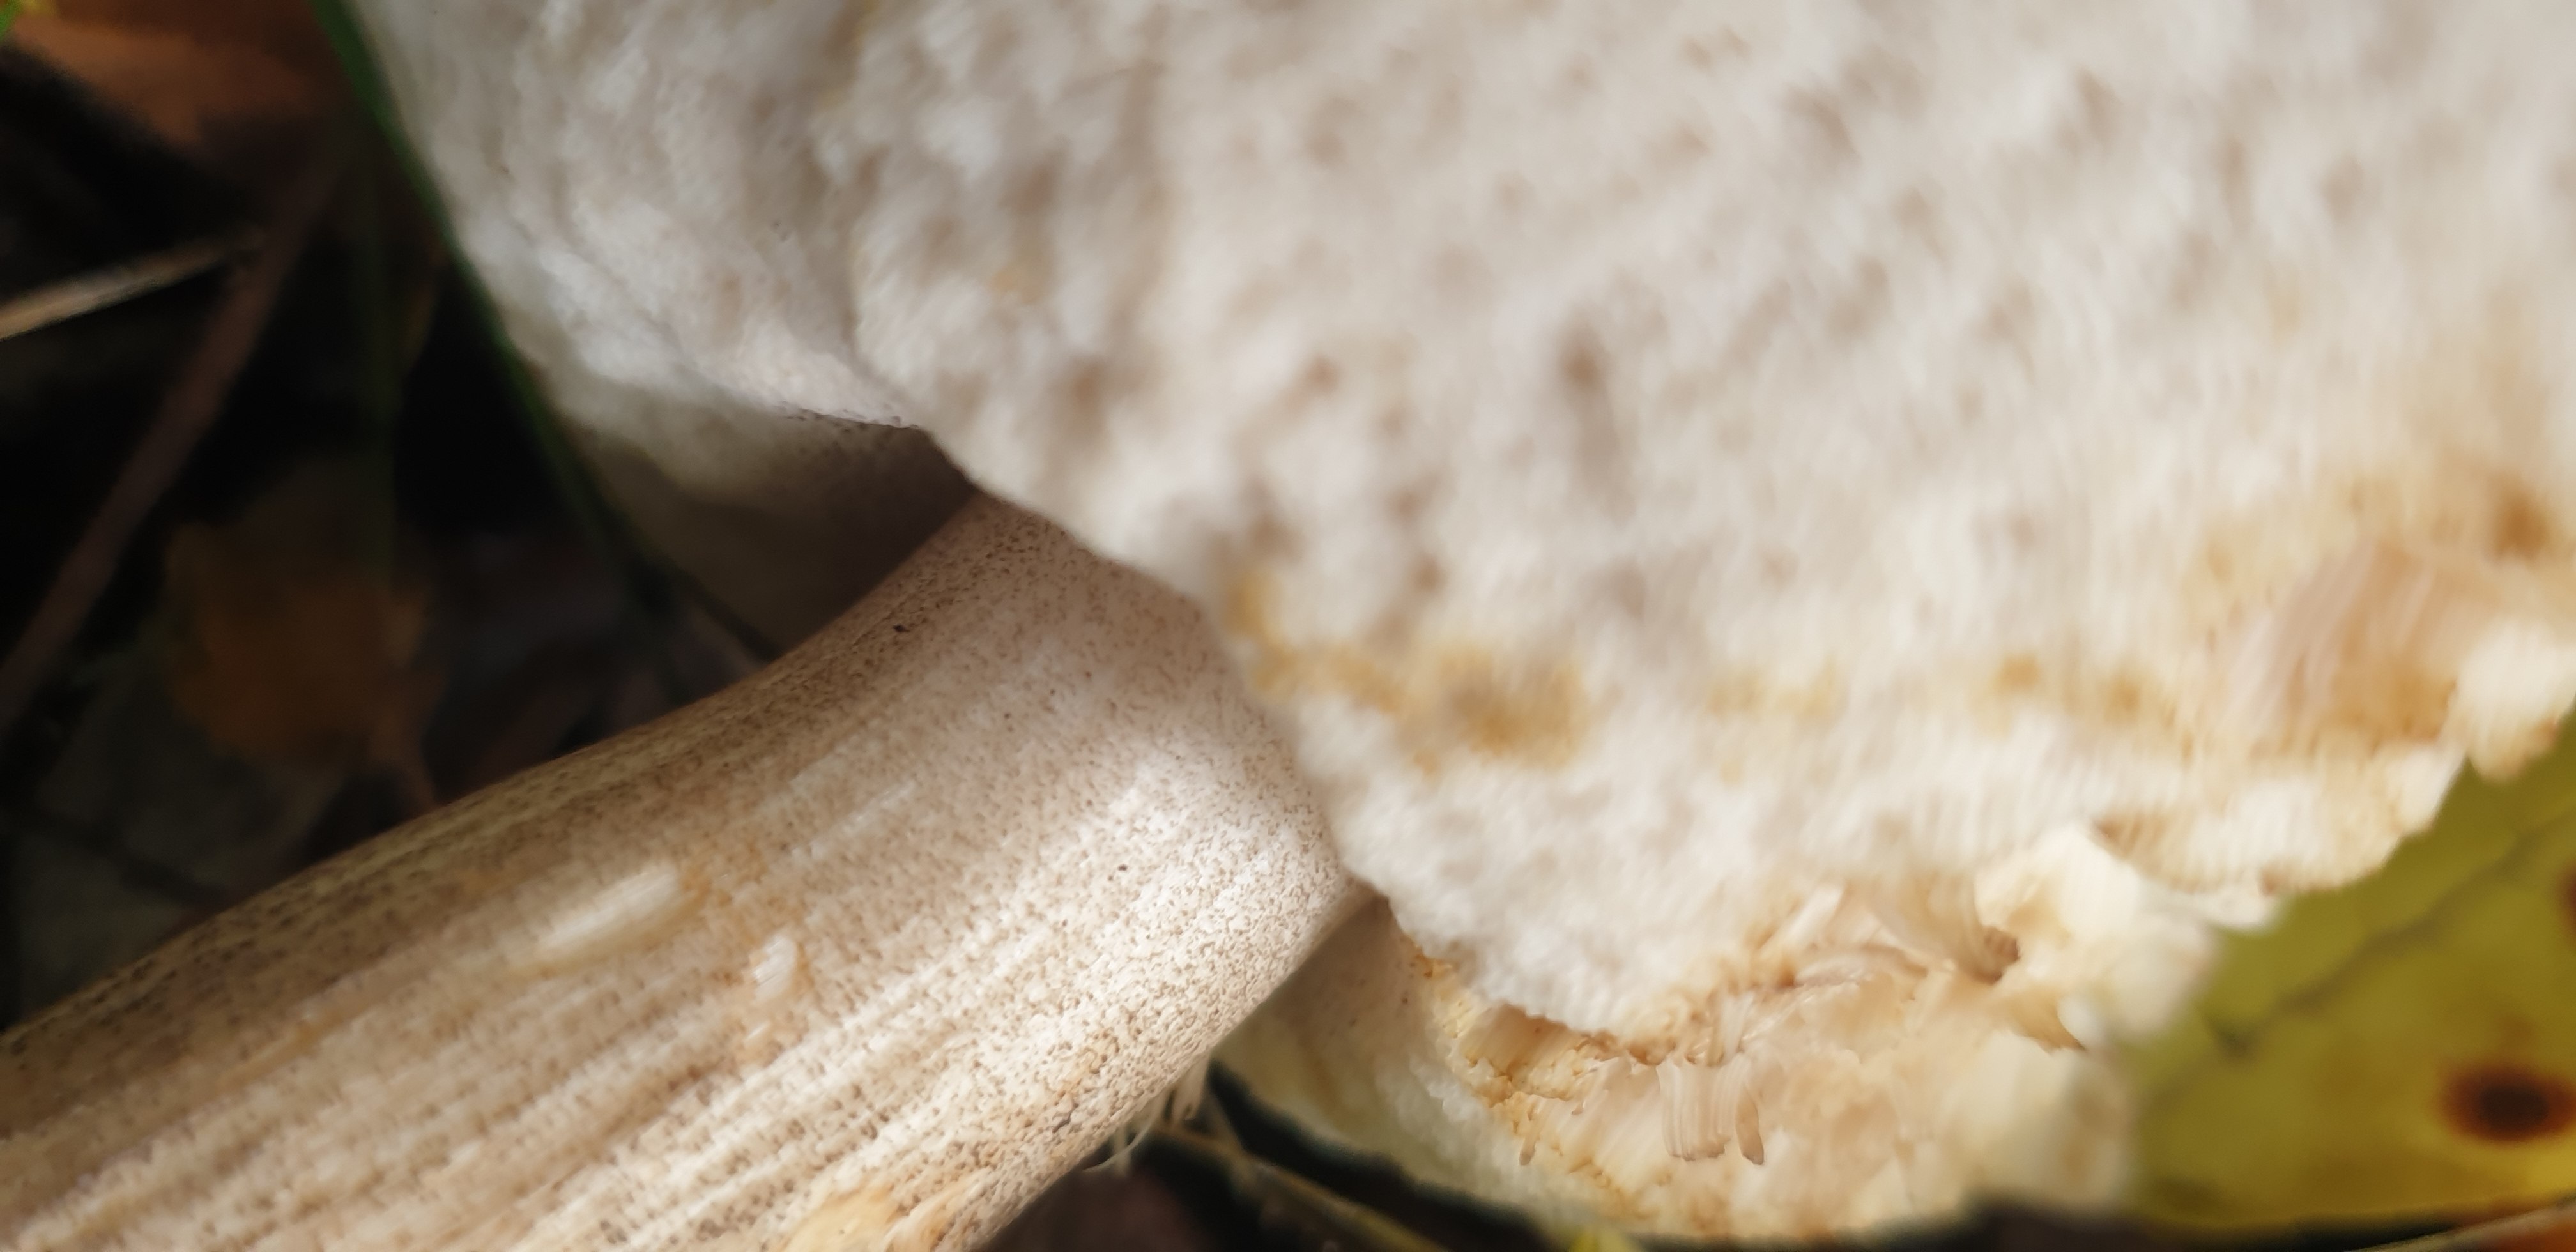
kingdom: Fungi
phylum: Basidiomycota
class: Agaricomycetes
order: Boletales
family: Boletaceae
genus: Leccinum
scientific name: Leccinum scabrum
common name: brun skælrørhat
